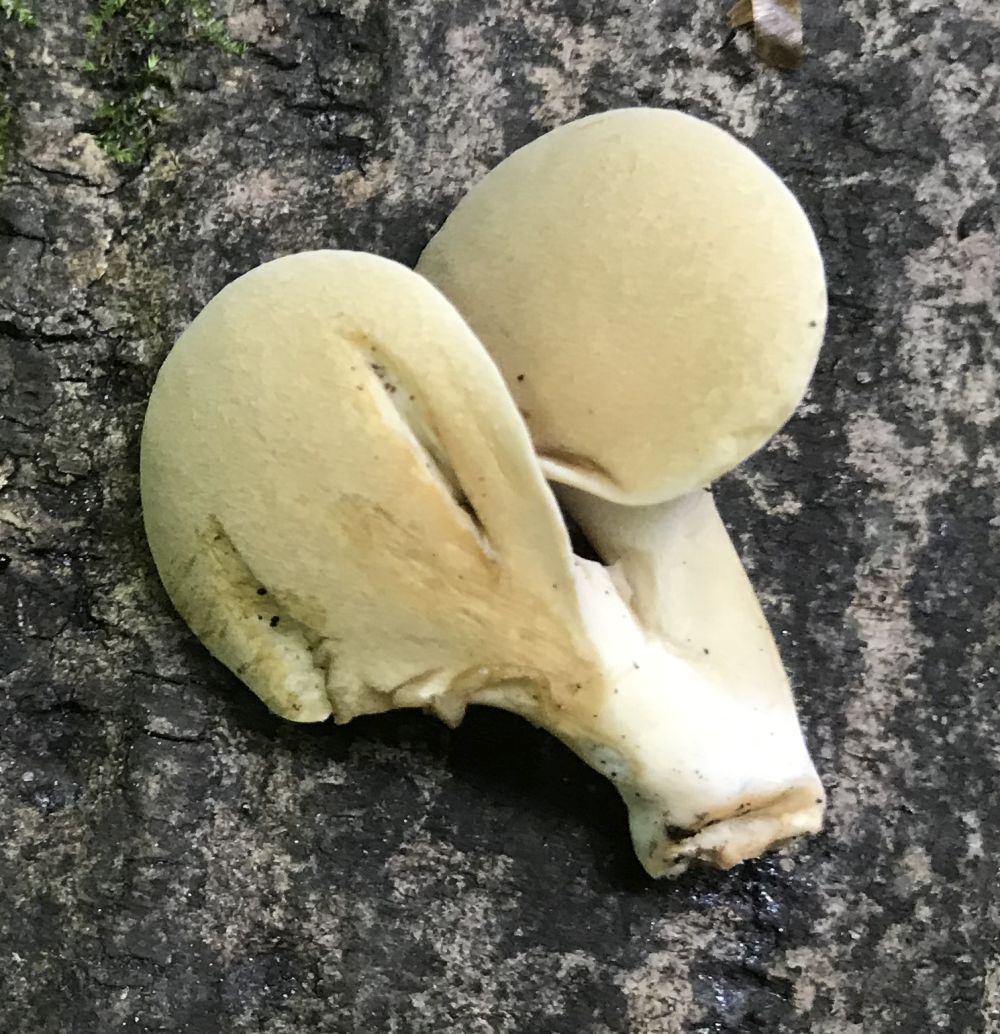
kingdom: Fungi
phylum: Basidiomycota
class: Agaricomycetes
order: Polyporales
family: Polyporaceae
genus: Cerioporus
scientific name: Cerioporus varius
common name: foranderlig stilkporesvamp
